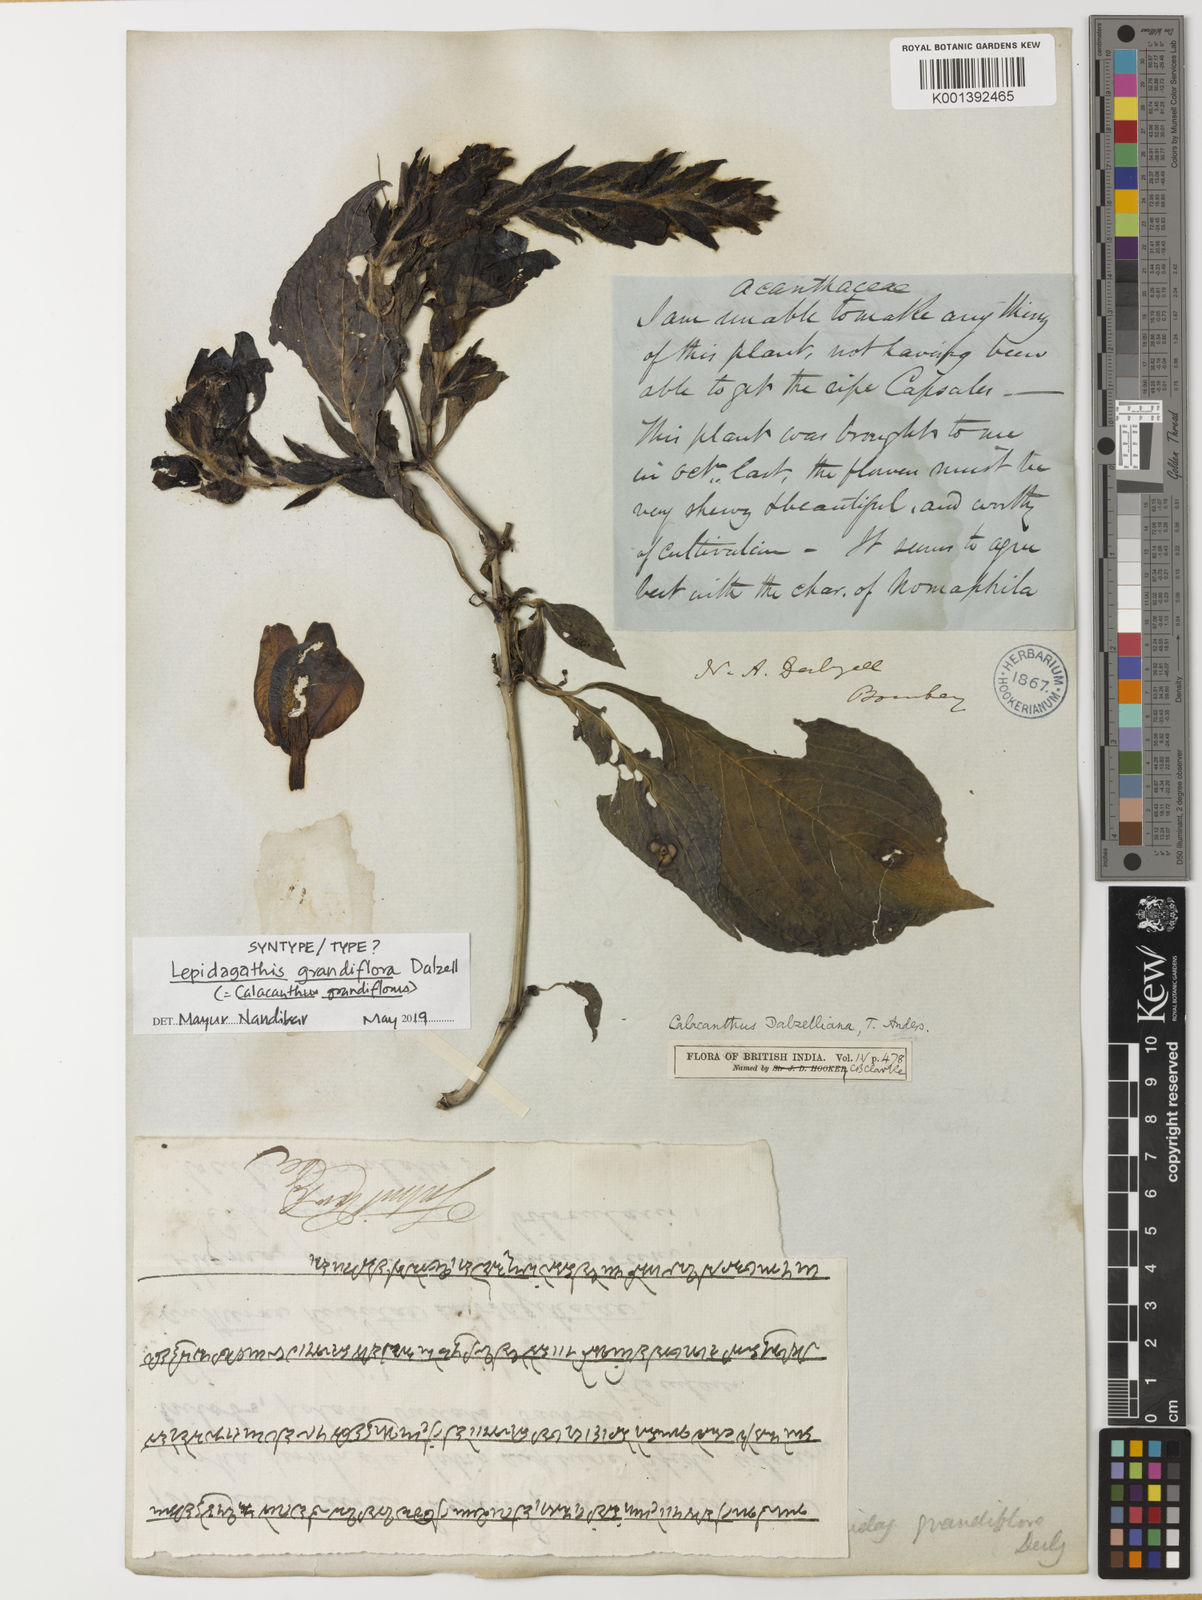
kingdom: Plantae
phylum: Tracheophyta
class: Magnoliopsida
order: Lamiales
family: Acanthaceae
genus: Calacanthus
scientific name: Calacanthus
